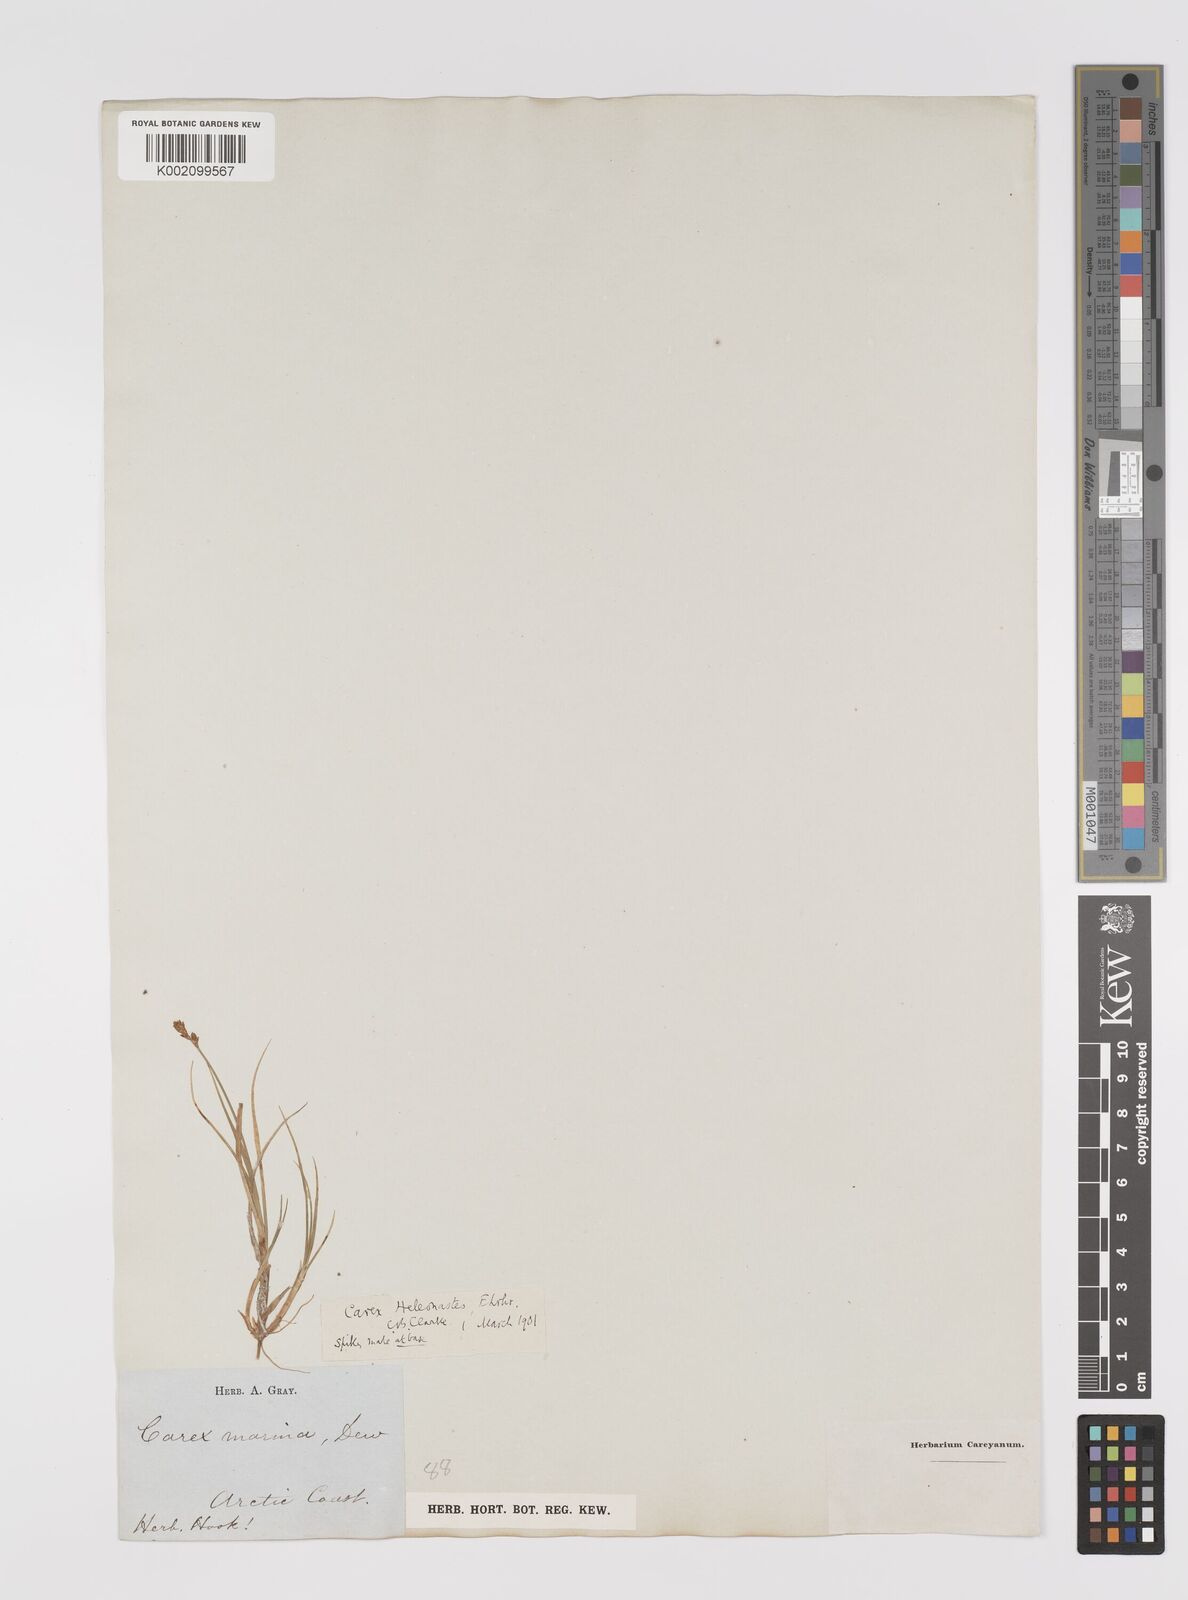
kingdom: Plantae
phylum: Tracheophyta
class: Liliopsida
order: Poales
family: Cyperaceae
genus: Carex
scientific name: Carex heleonastes
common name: Hudson bay sedge
